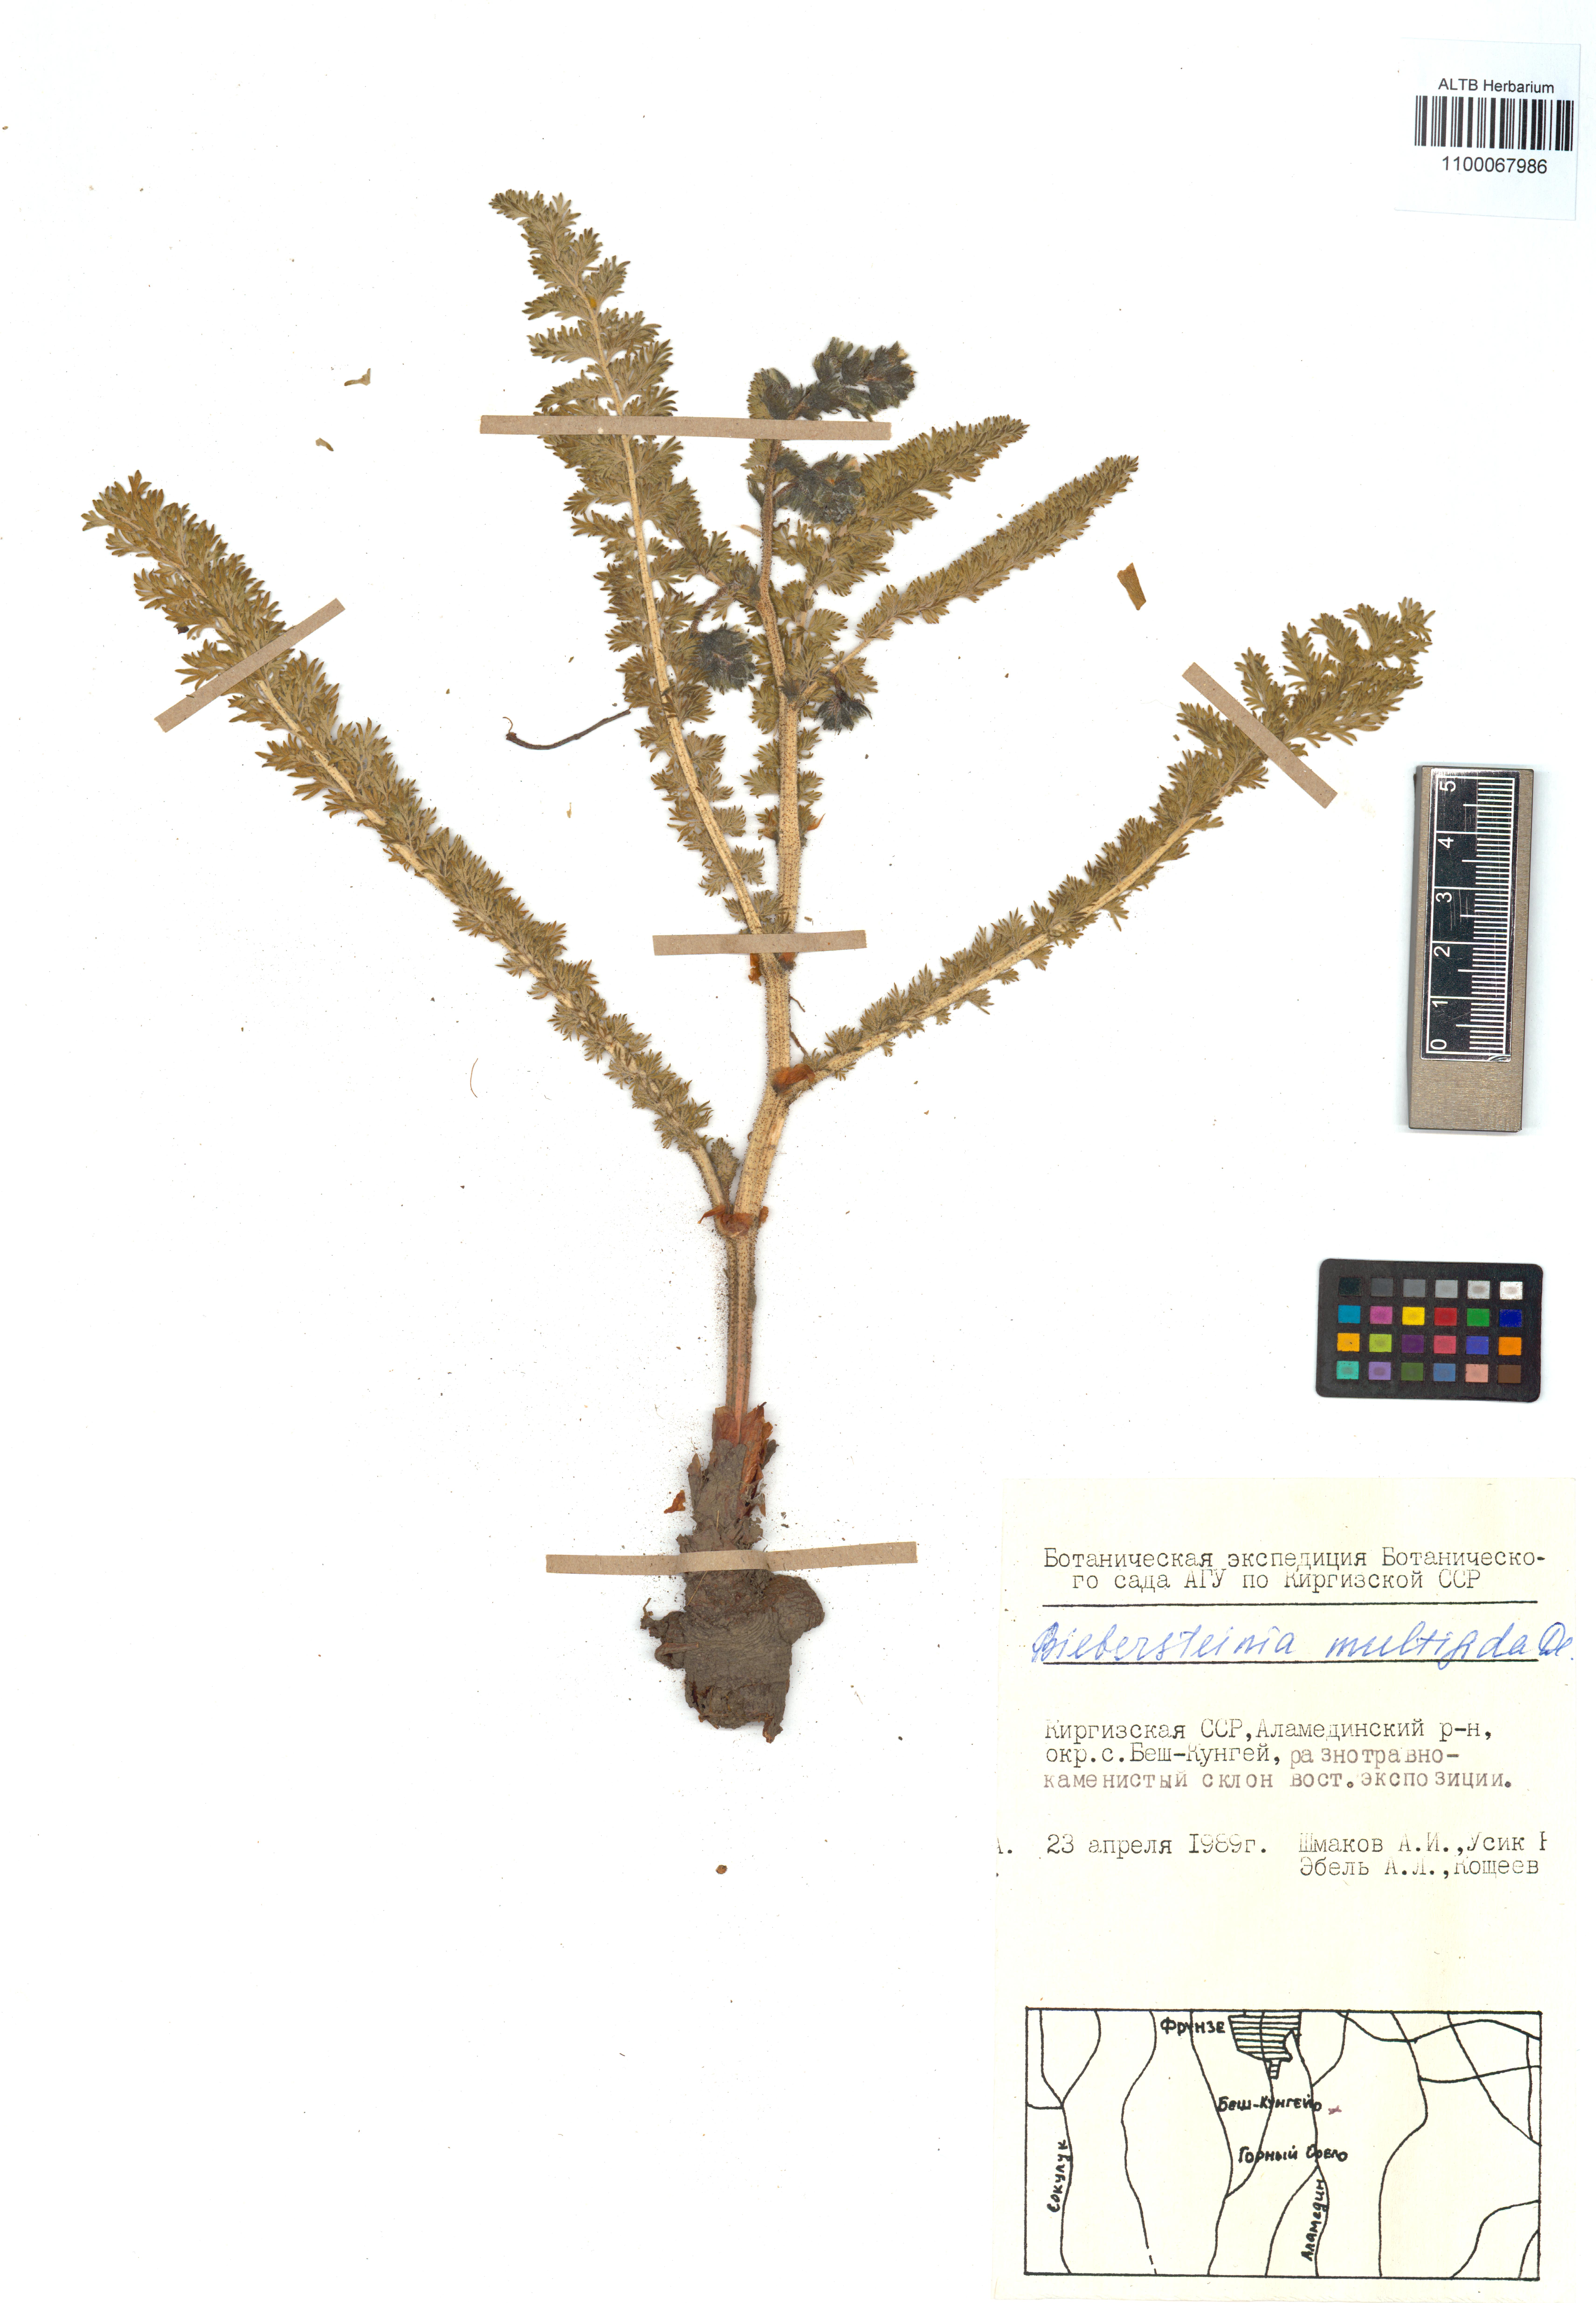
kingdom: Plantae
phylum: Tracheophyta
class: Magnoliopsida
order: Sapindales
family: Biebersteiniaceae
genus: Biebersteinia
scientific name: Biebersteinia multifida
